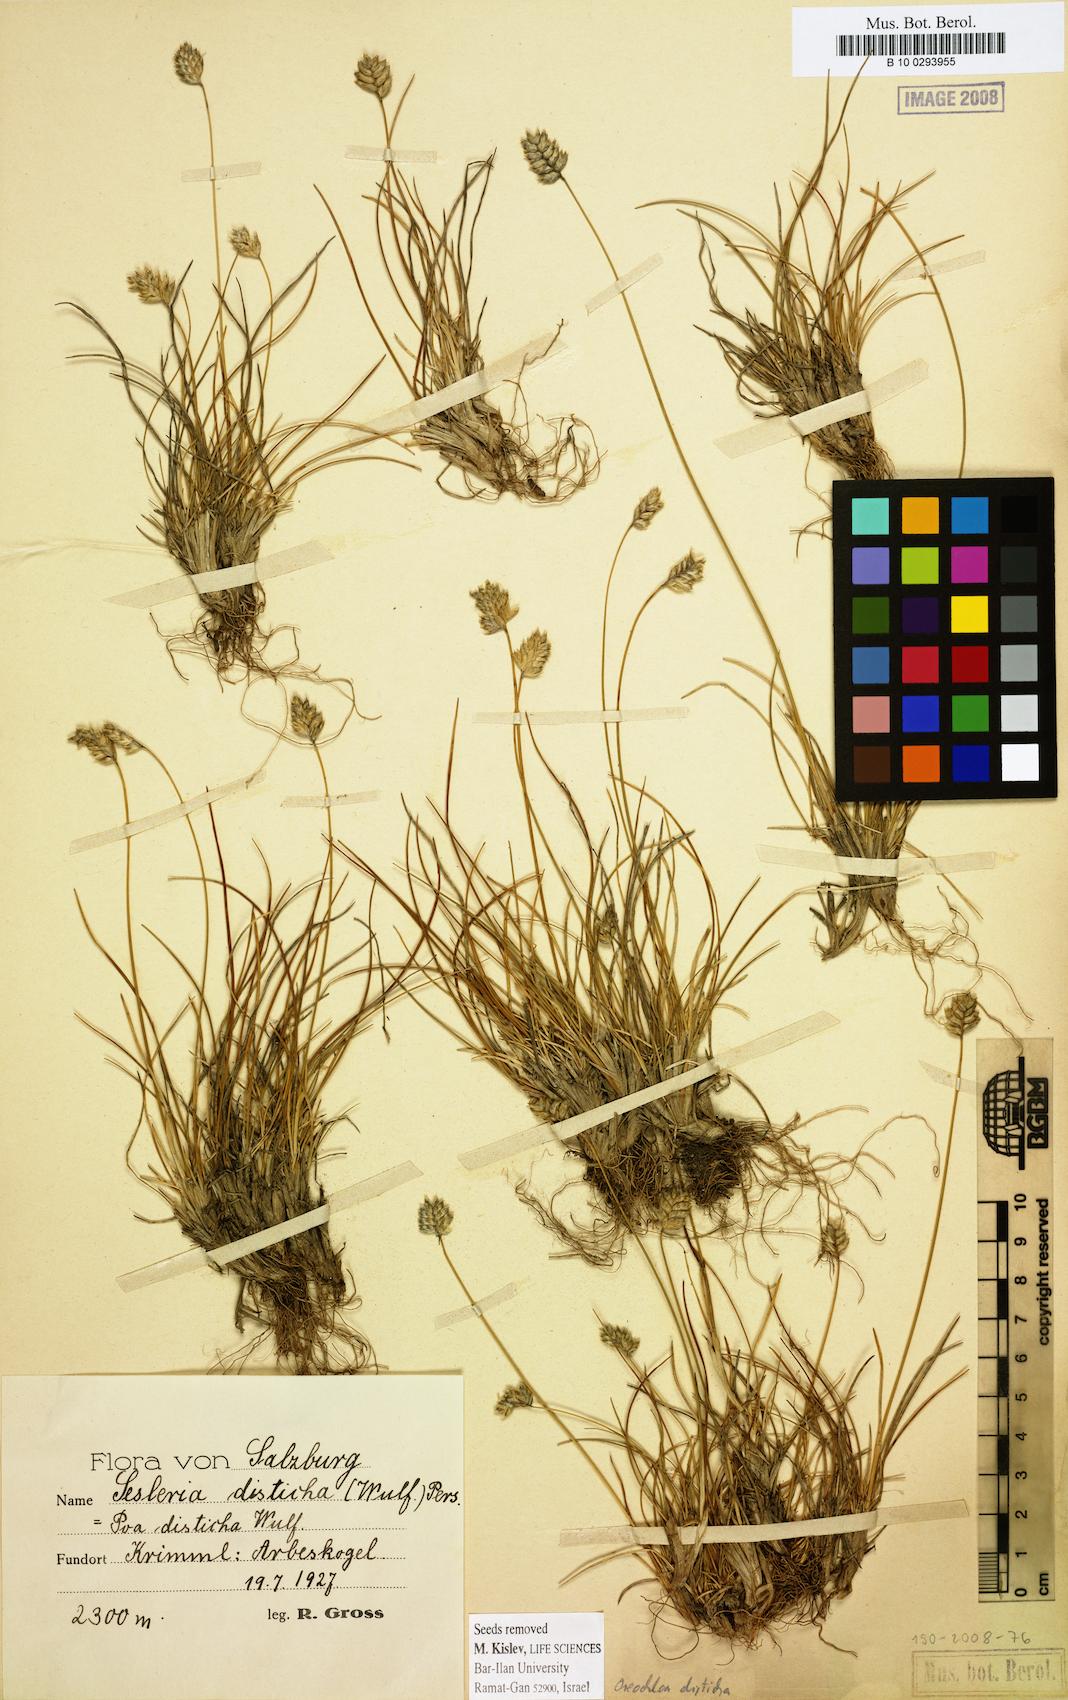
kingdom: Plantae
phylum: Tracheophyta
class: Liliopsida
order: Poales
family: Poaceae
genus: Oreochloa
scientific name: Oreochloa disticha
